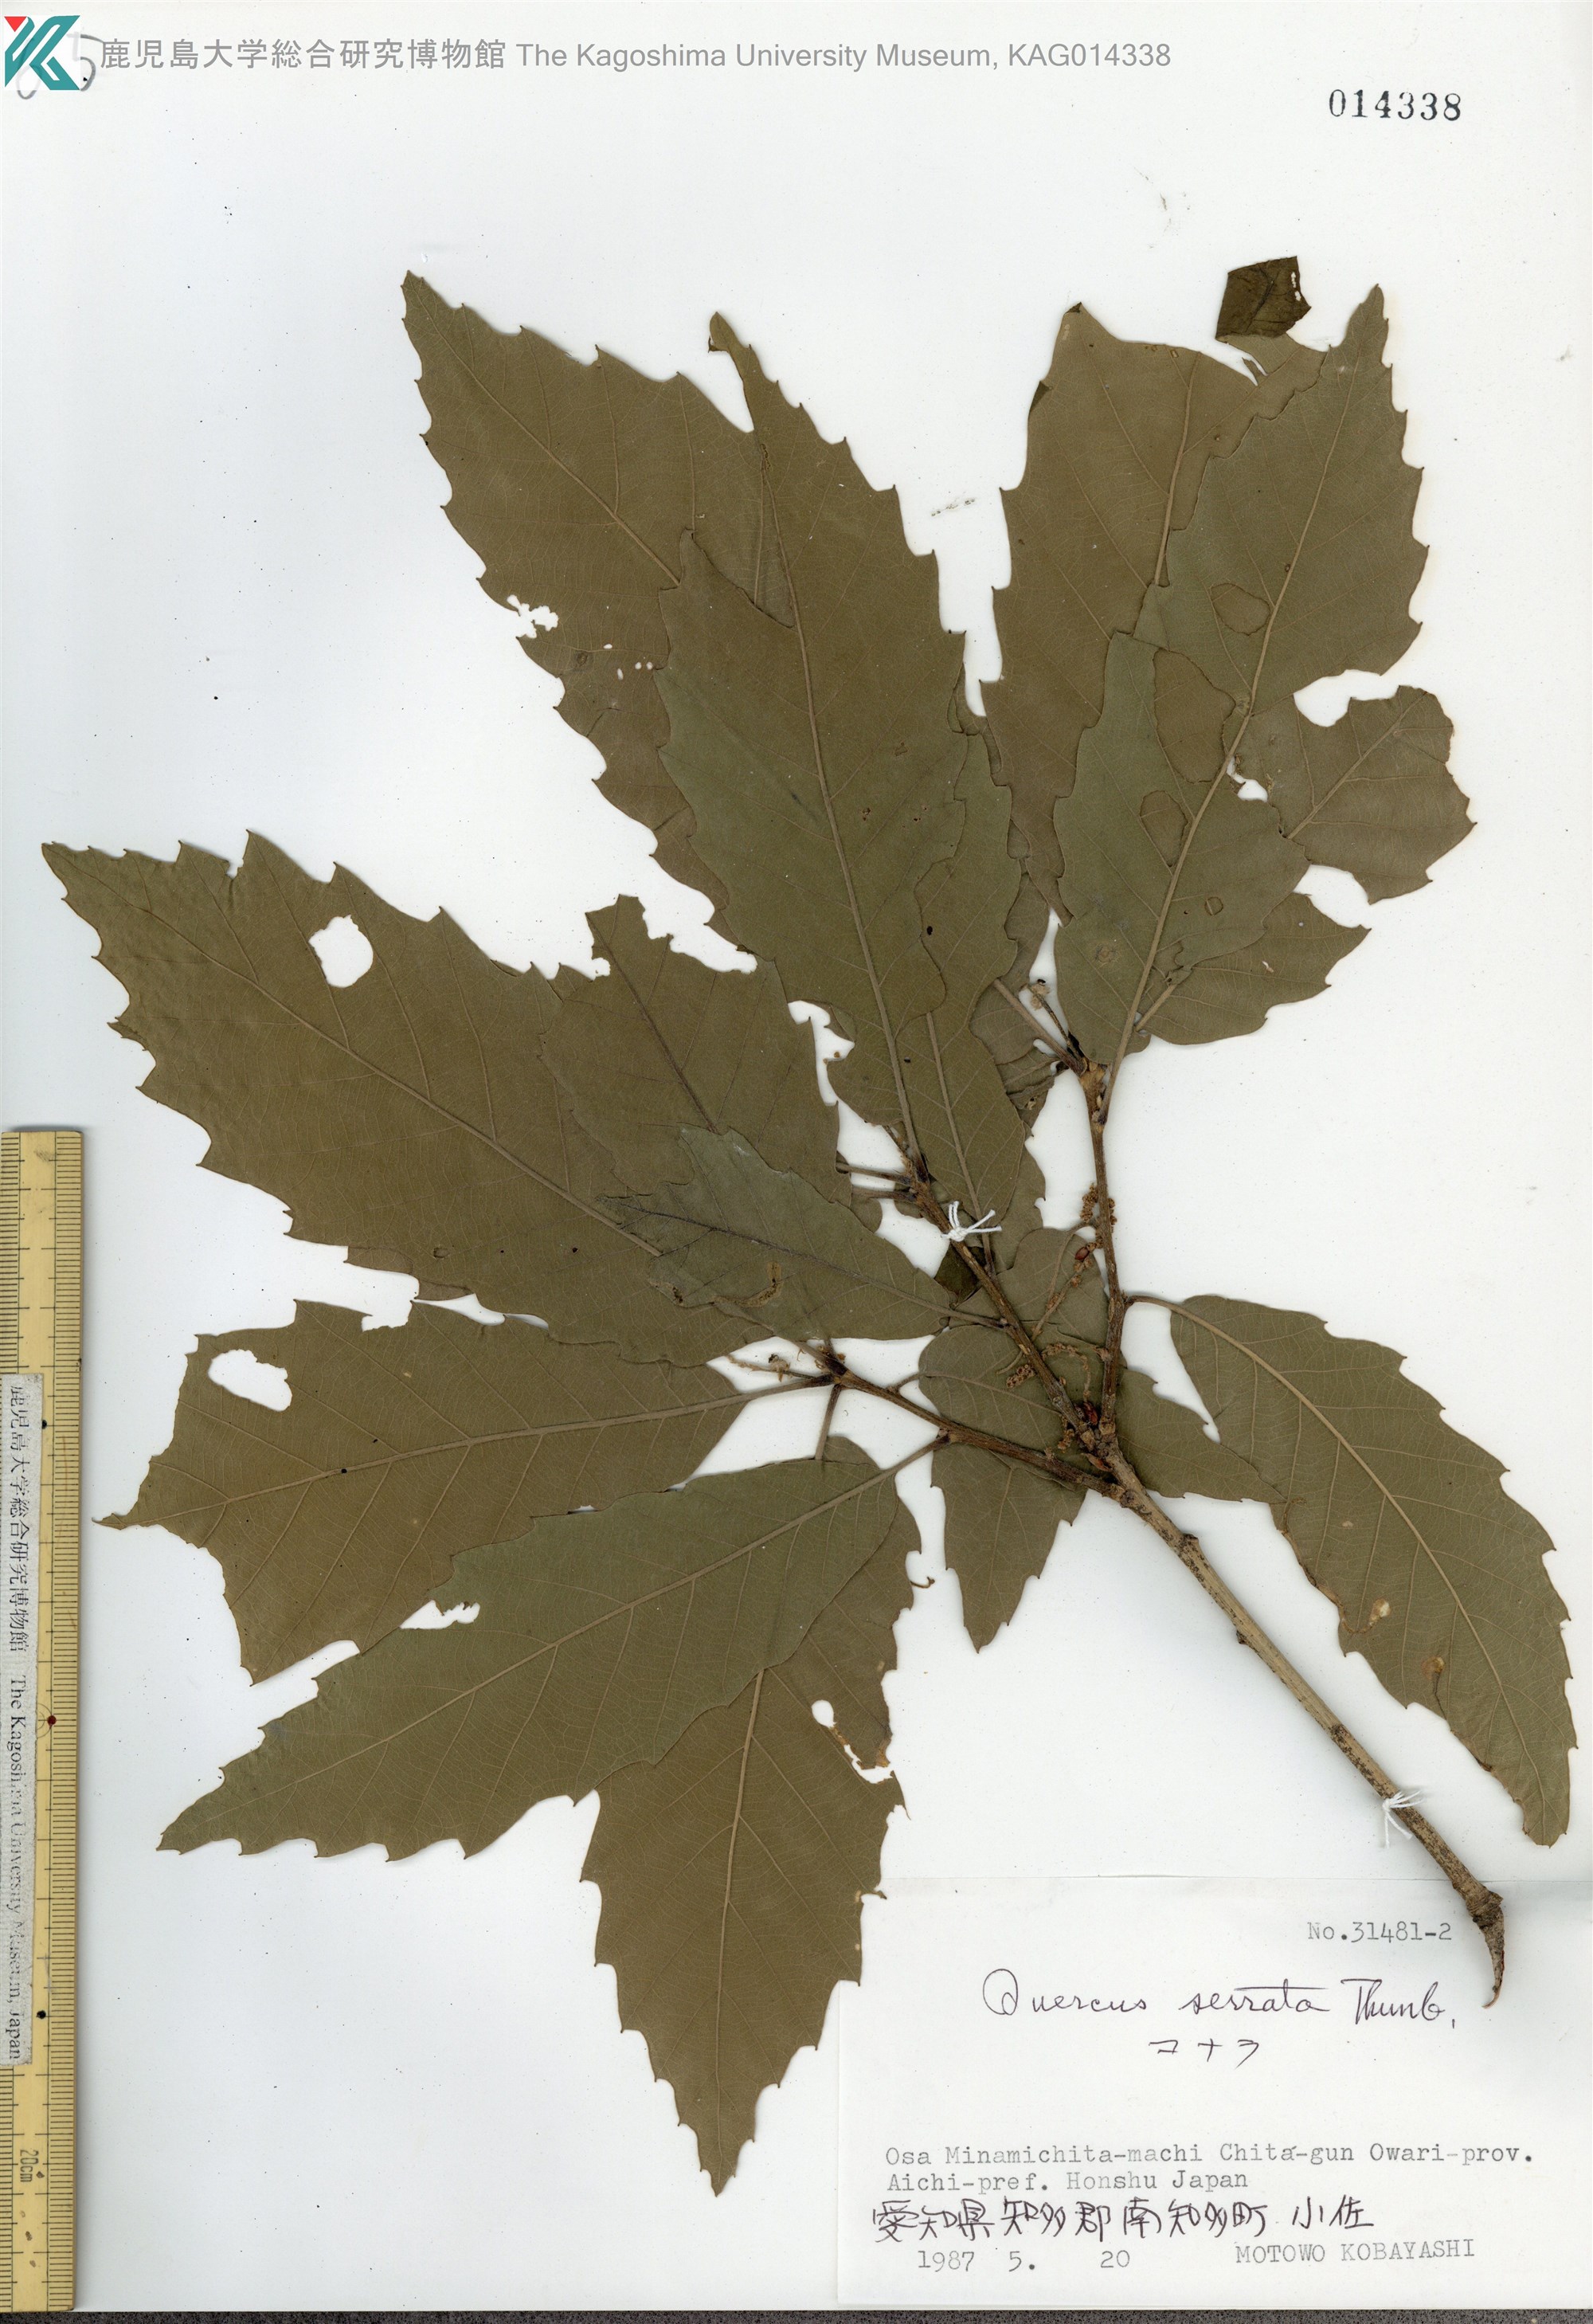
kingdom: Plantae
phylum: Tracheophyta
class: Magnoliopsida
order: Fagales
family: Fagaceae
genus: Quercus
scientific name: Quercus serrata
